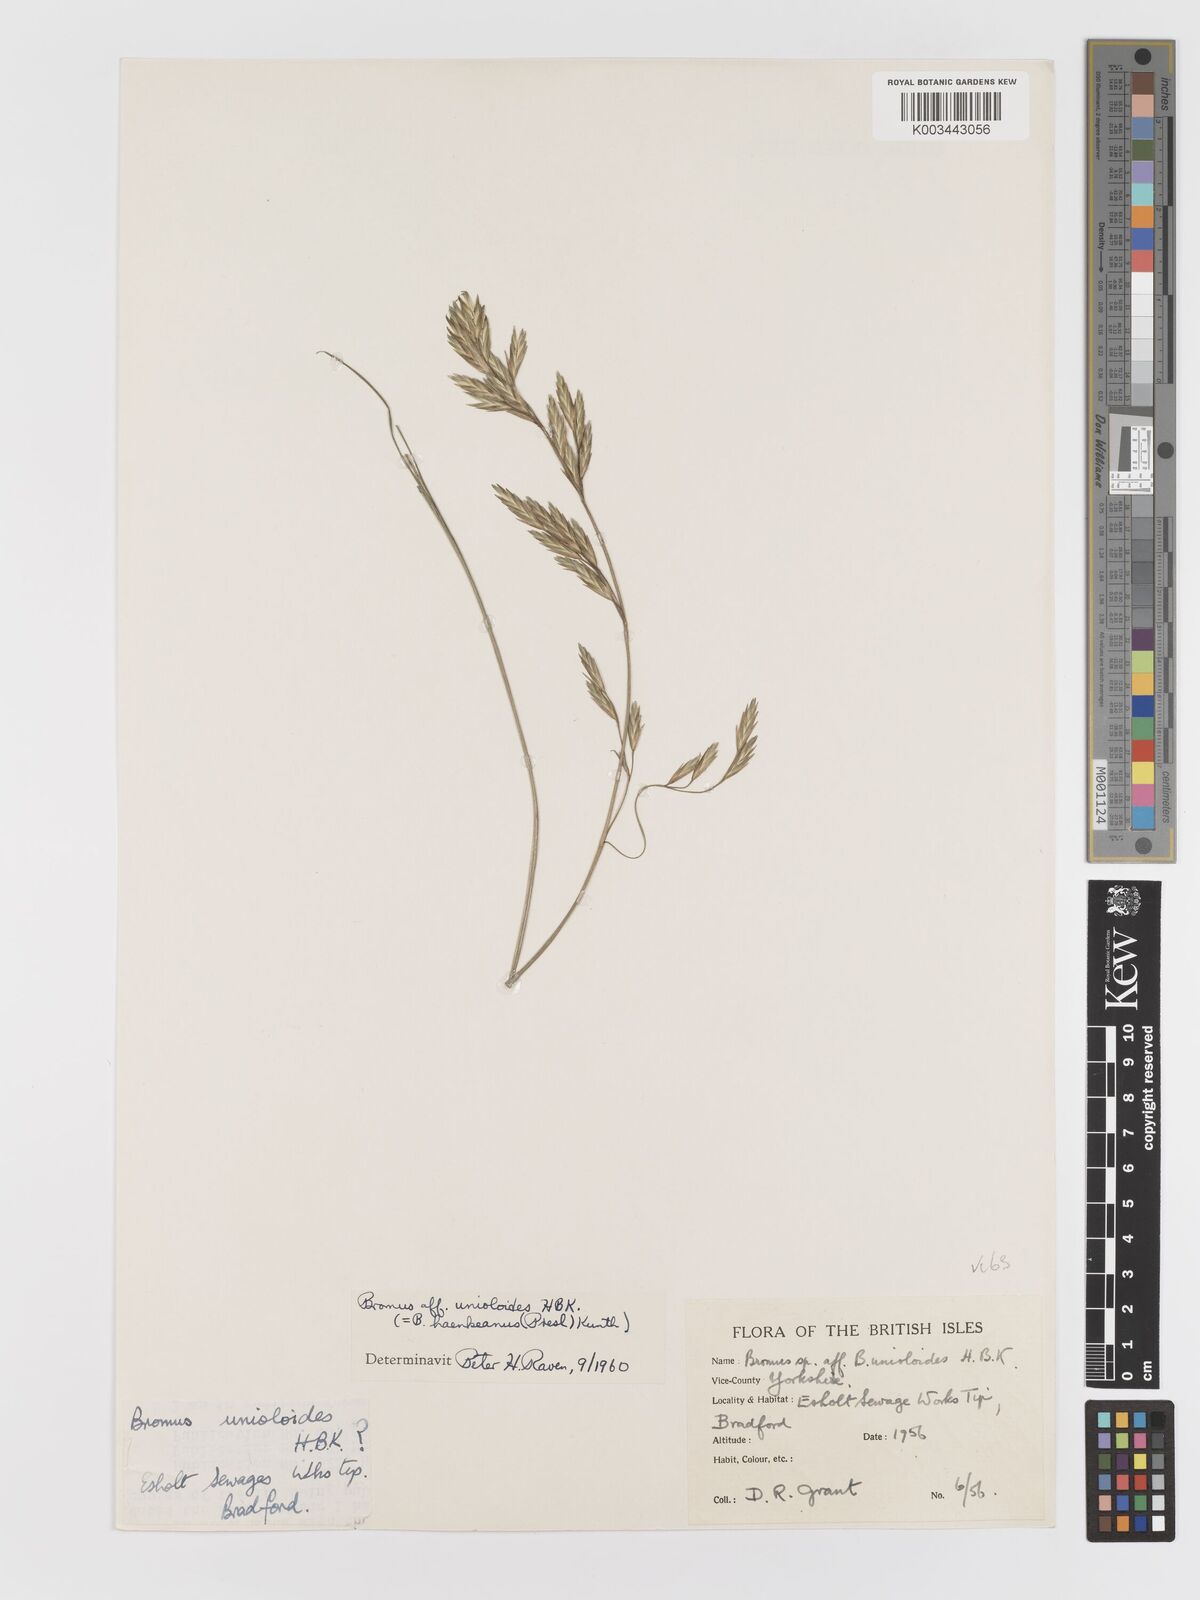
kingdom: Plantae
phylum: Tracheophyta
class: Liliopsida
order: Poales
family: Poaceae
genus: Bromus
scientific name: Bromus catharticus
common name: Rescuegrass
